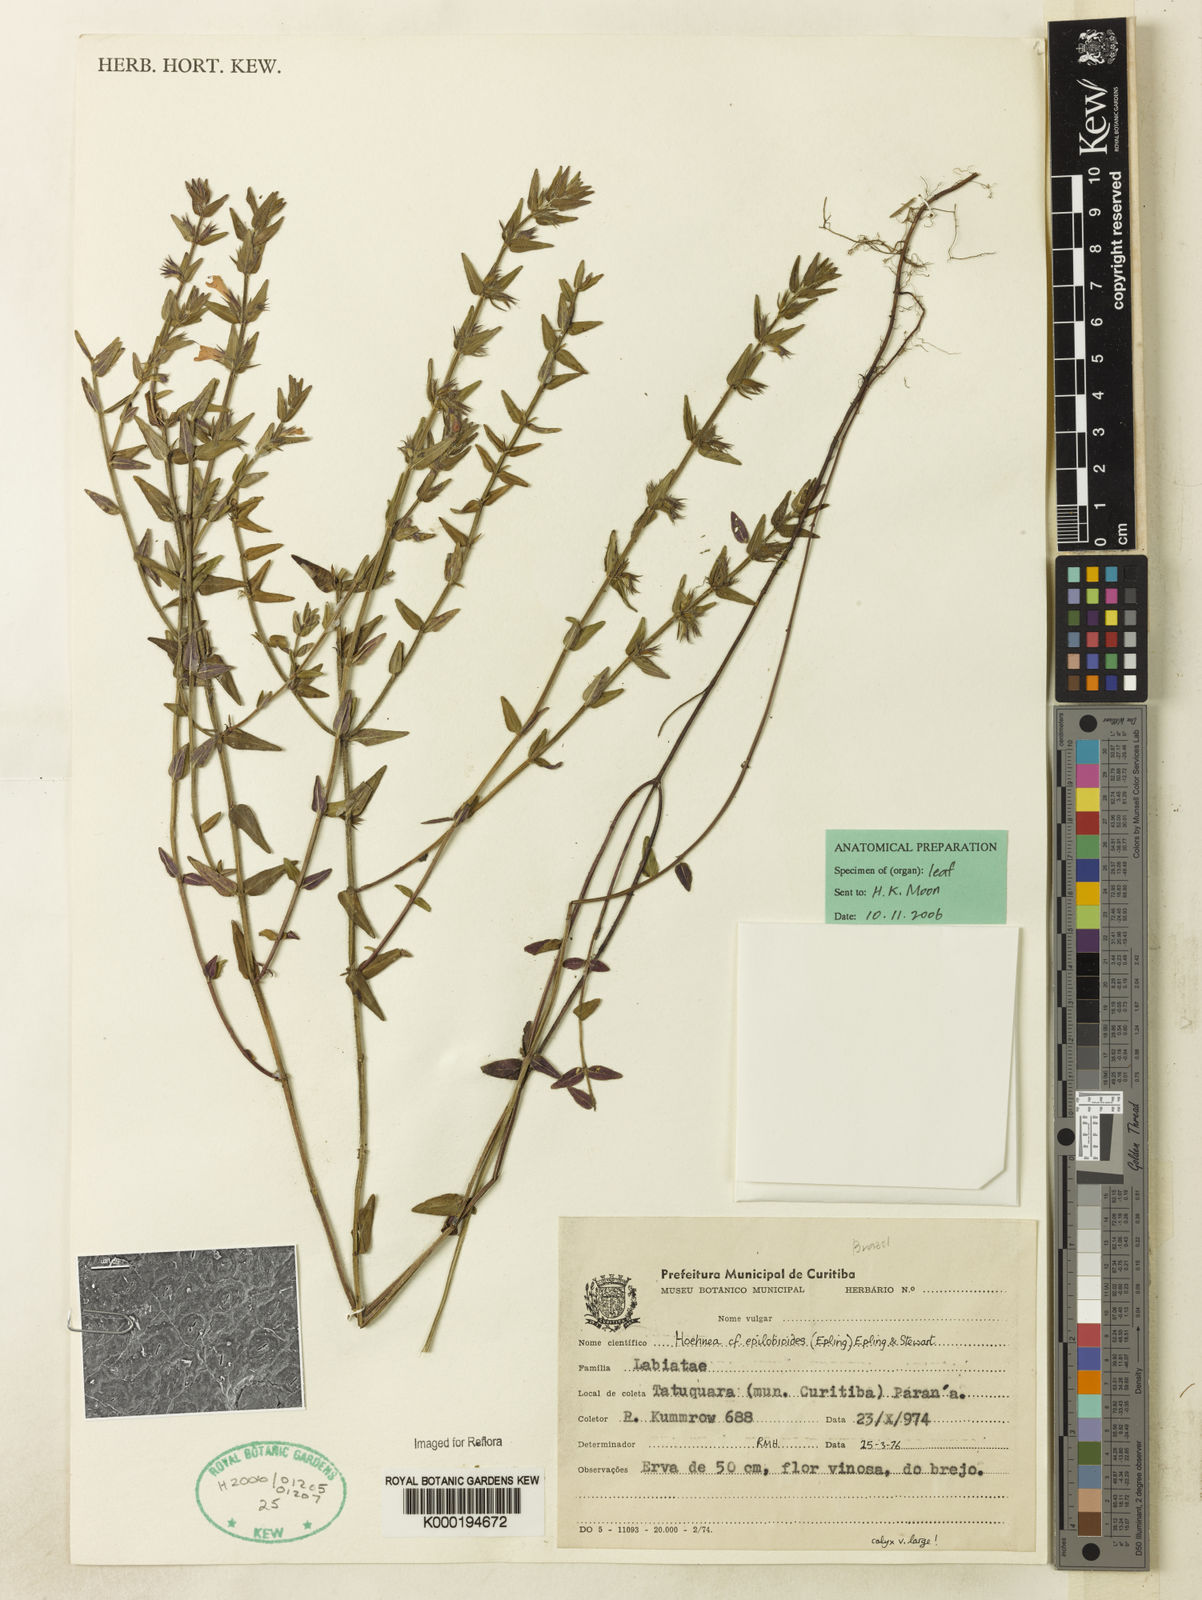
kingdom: Plantae
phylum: Tracheophyta
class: Magnoliopsida
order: Lamiales
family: Lamiaceae
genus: Hoehnea
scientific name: Hoehnea epilobioides
